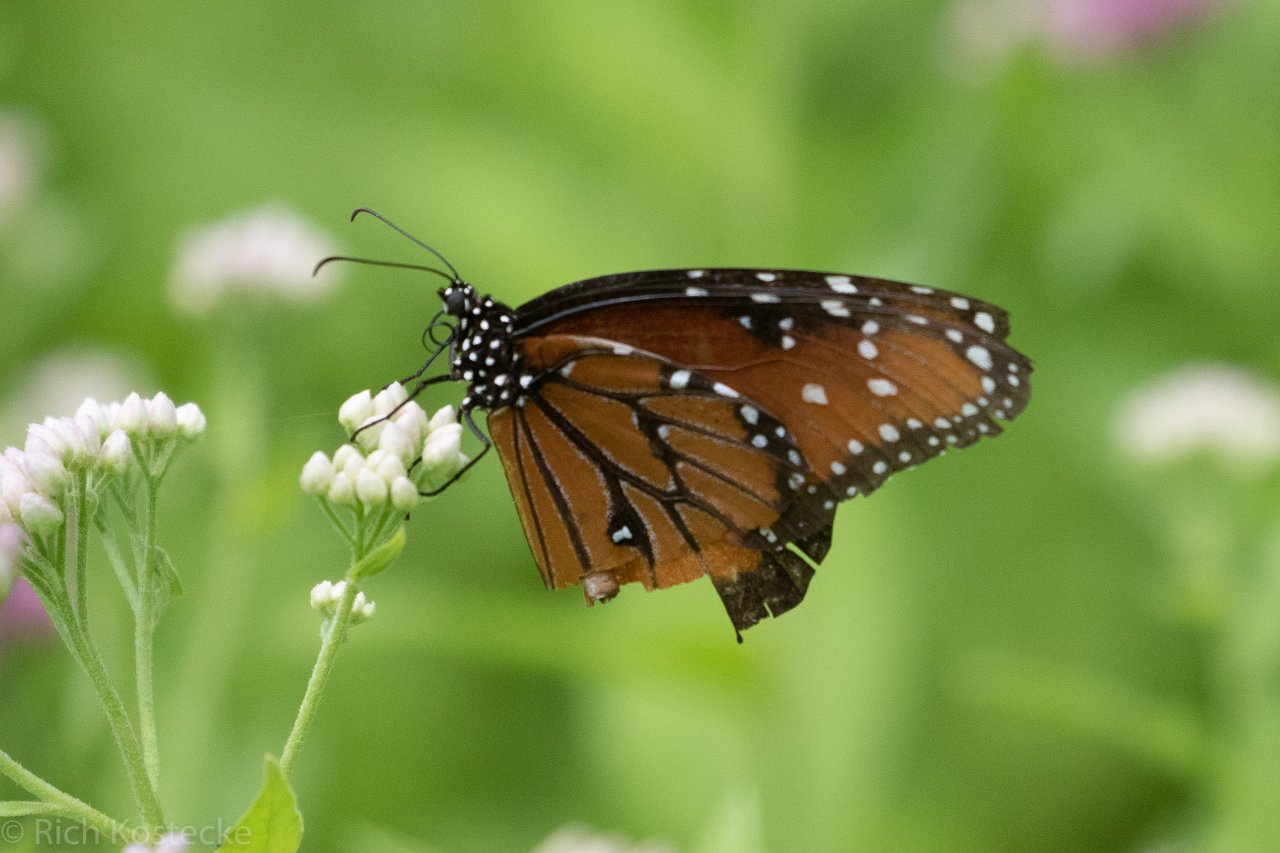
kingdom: Animalia
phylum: Arthropoda
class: Insecta
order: Lepidoptera
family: Nymphalidae
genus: Danaus
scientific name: Danaus gilippus
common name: Queen
